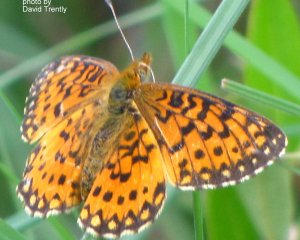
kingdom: Animalia
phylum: Arthropoda
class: Insecta
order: Lepidoptera
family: Nymphalidae
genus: Boloria
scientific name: Boloria selene
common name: Silver-bordered Fritillary
